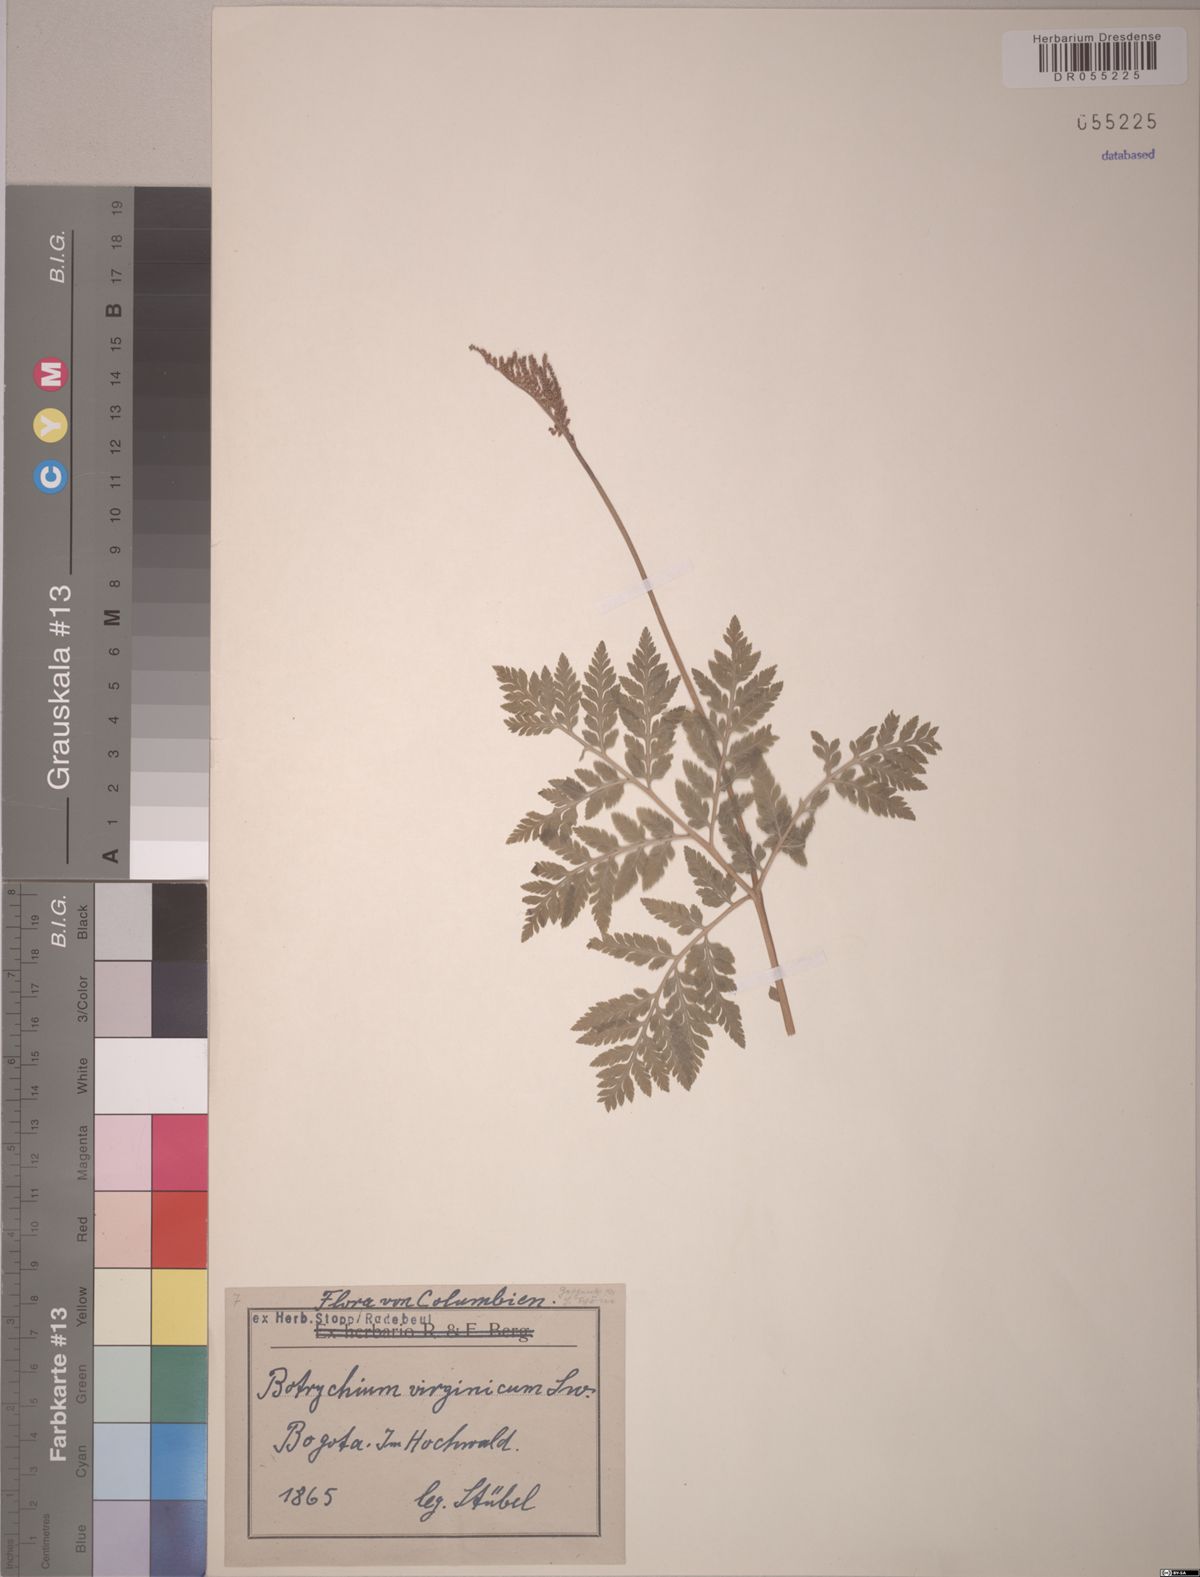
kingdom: Plantae
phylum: Tracheophyta
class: Polypodiopsida
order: Ophioglossales
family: Ophioglossaceae
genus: Botrypus
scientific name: Botrypus virginianus
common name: Common grapefern
